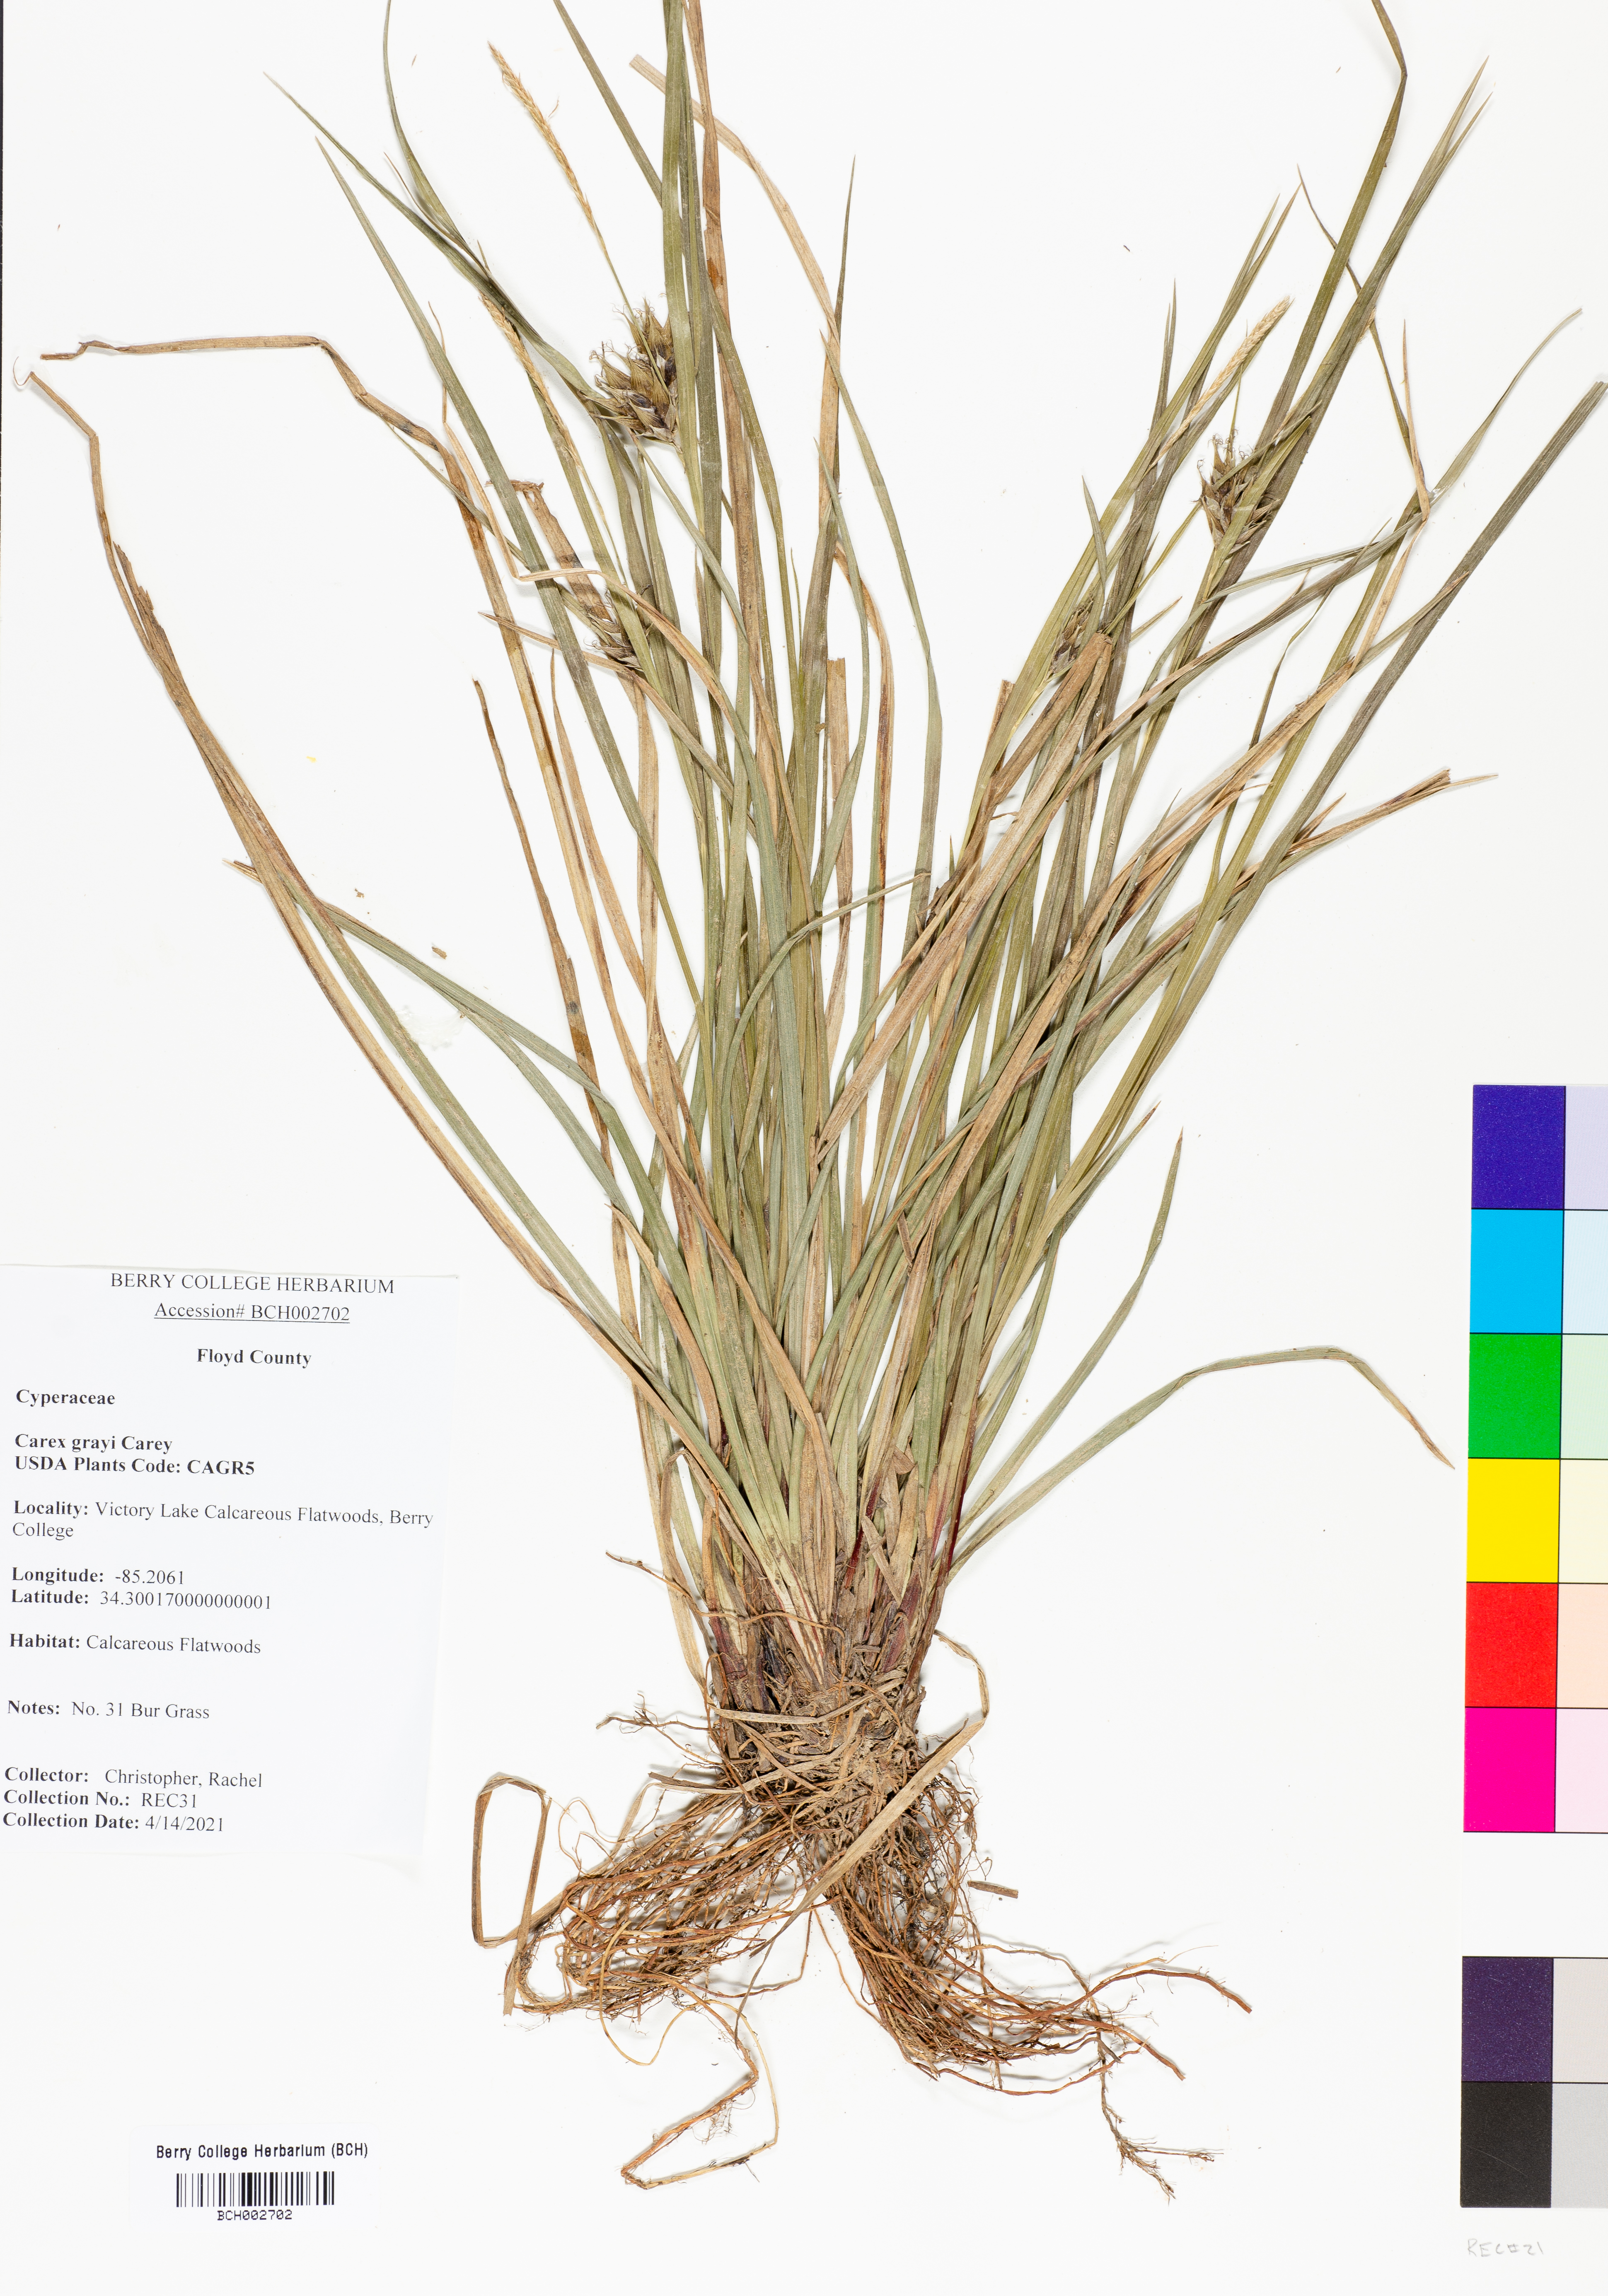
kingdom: Plantae
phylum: Tracheophyta
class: Liliopsida
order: Poales
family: Cyperaceae
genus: Carex
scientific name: Carex grayi
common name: Asa gray's sedge
